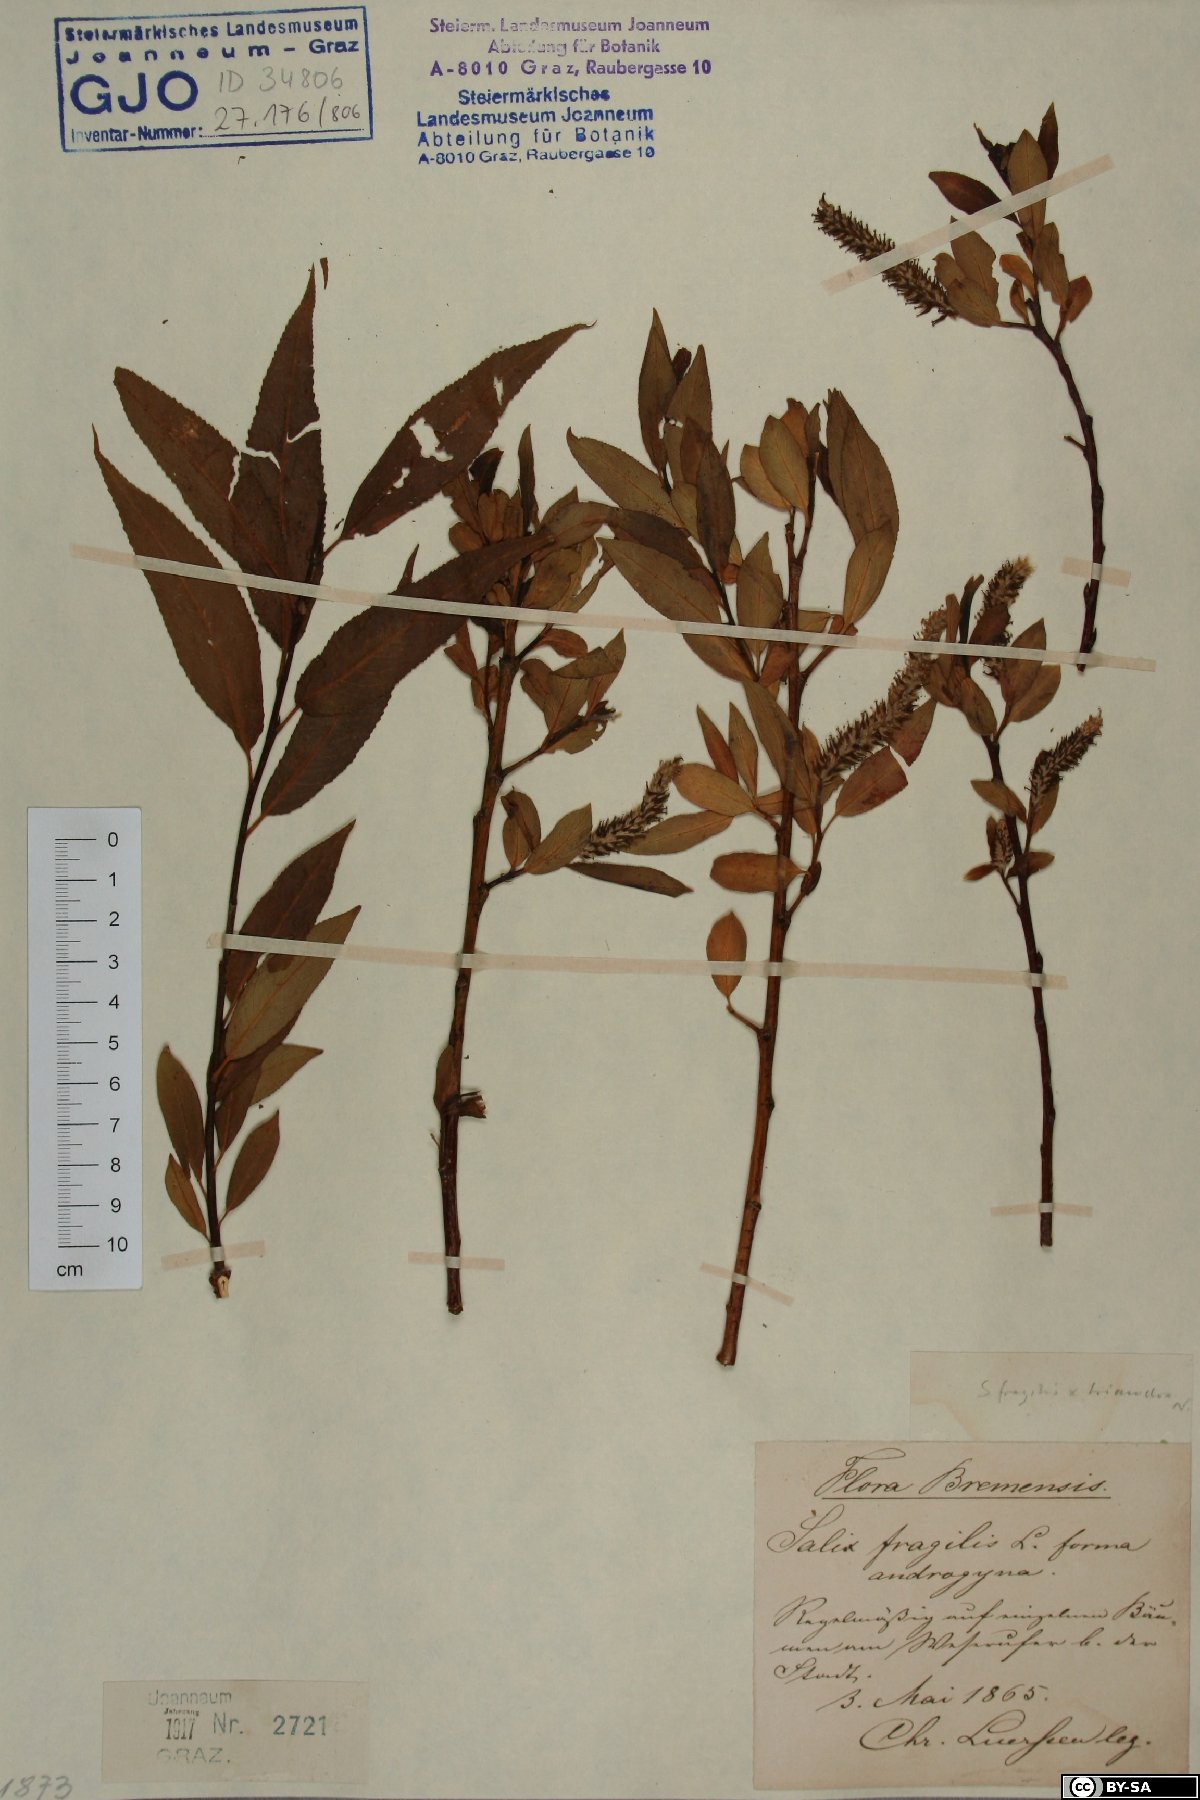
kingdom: Plantae
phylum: Tracheophyta
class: Magnoliopsida
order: Malpighiales
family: Salicaceae
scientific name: Salicaceae
